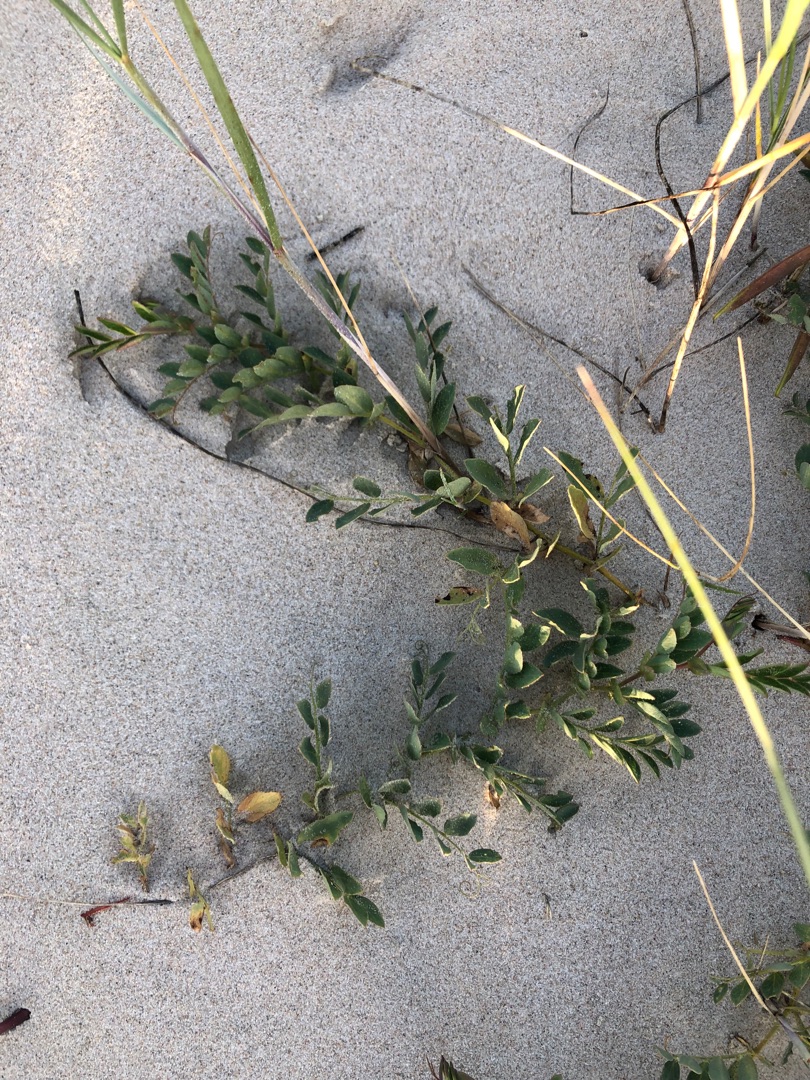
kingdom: Plantae
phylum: Tracheophyta
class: Magnoliopsida
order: Fabales
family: Fabaceae
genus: Lathyrus
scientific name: Lathyrus japonicus
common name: Klit-fladbælg
